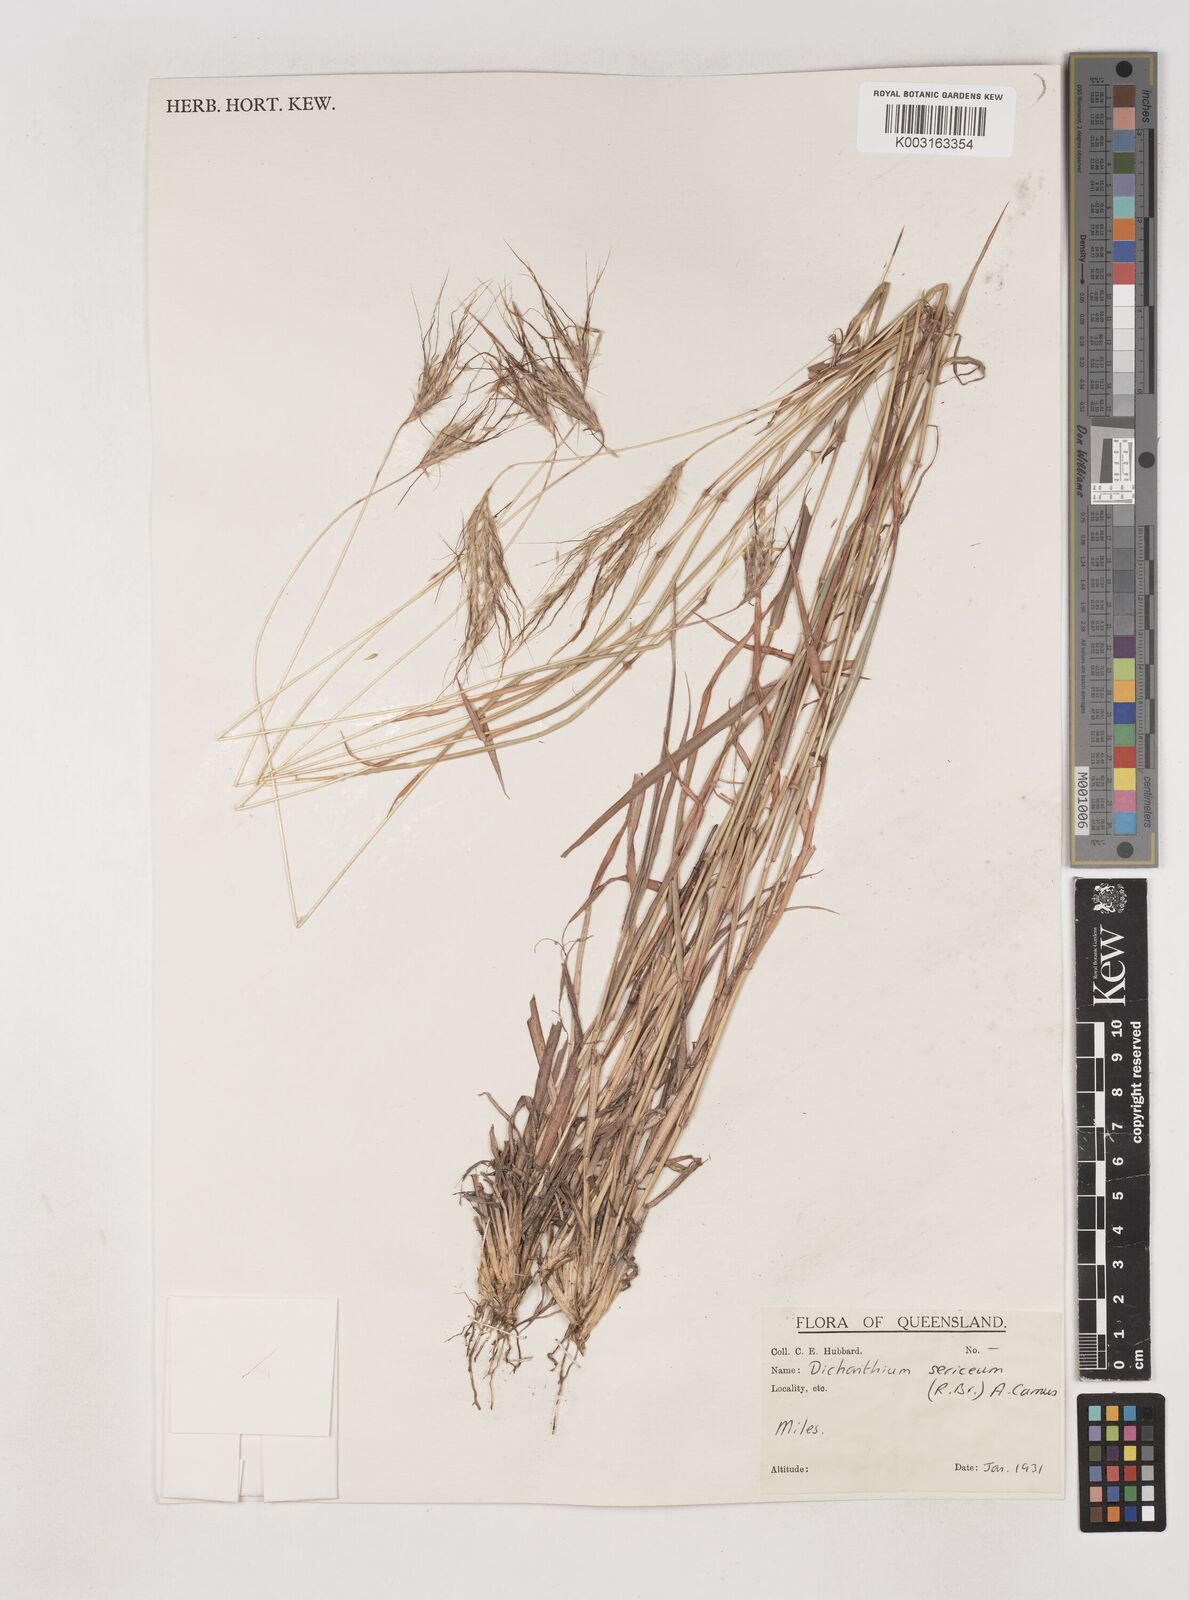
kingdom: Plantae
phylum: Tracheophyta
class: Liliopsida
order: Poales
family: Poaceae
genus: Dichanthium
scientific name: Dichanthium sericeum
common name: Silky bluestem
